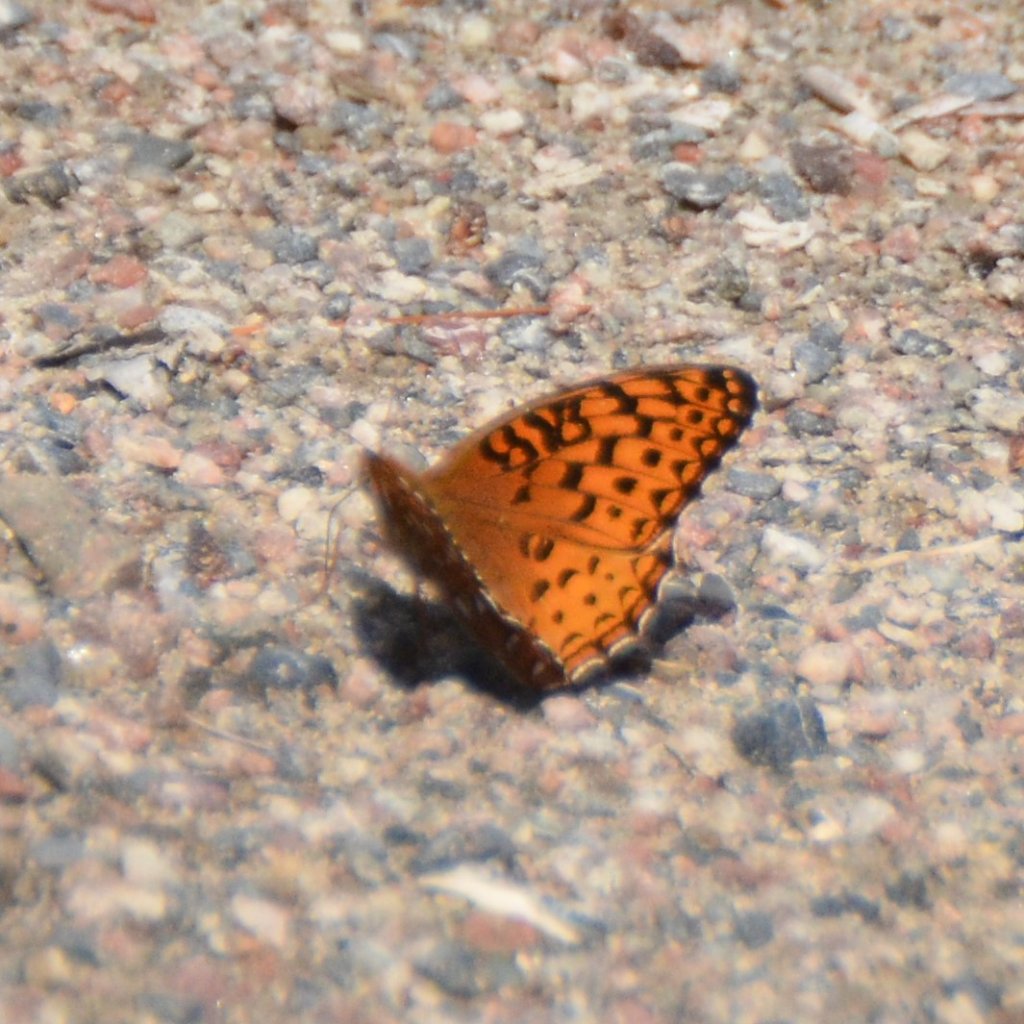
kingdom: Animalia
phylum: Arthropoda
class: Insecta
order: Lepidoptera
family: Nymphalidae
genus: Speyeria
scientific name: Speyeria aphrodite
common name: Aphrodite Fritillary
